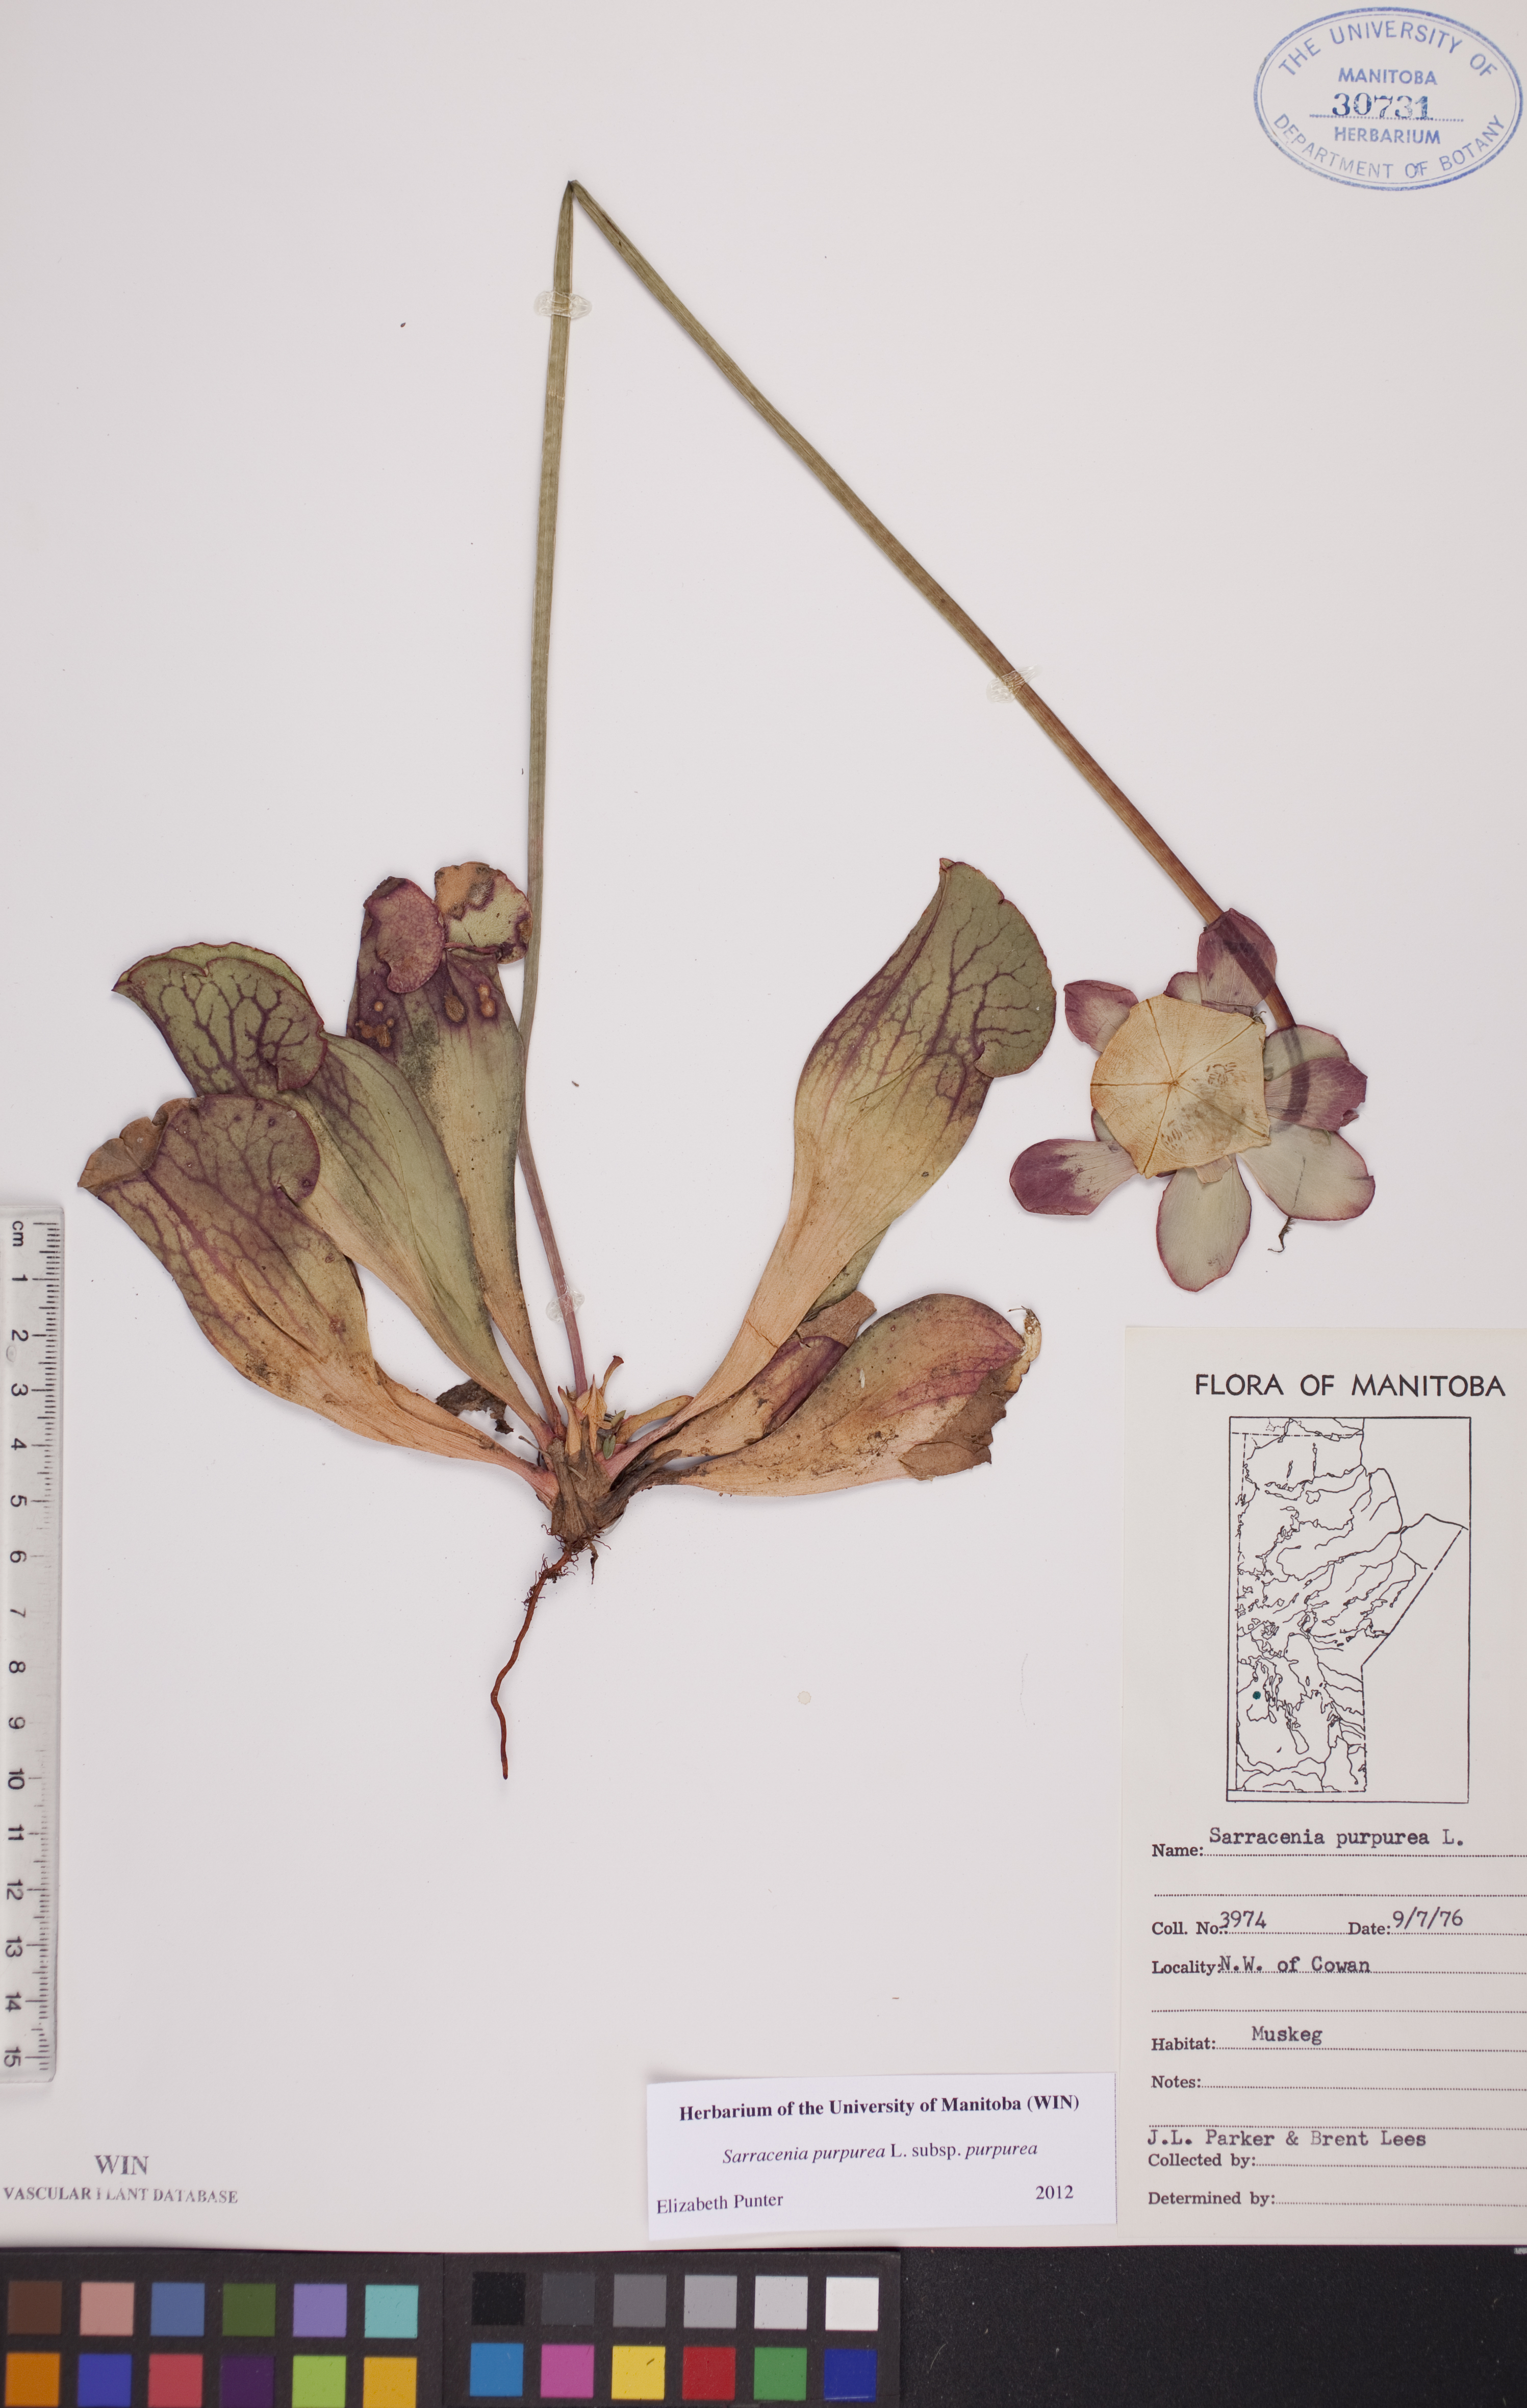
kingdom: Plantae
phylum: Tracheophyta
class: Magnoliopsida
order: Ericales
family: Sarraceniaceae
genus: Sarracenia
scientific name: Sarracenia purpurea
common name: Pitcherplant
